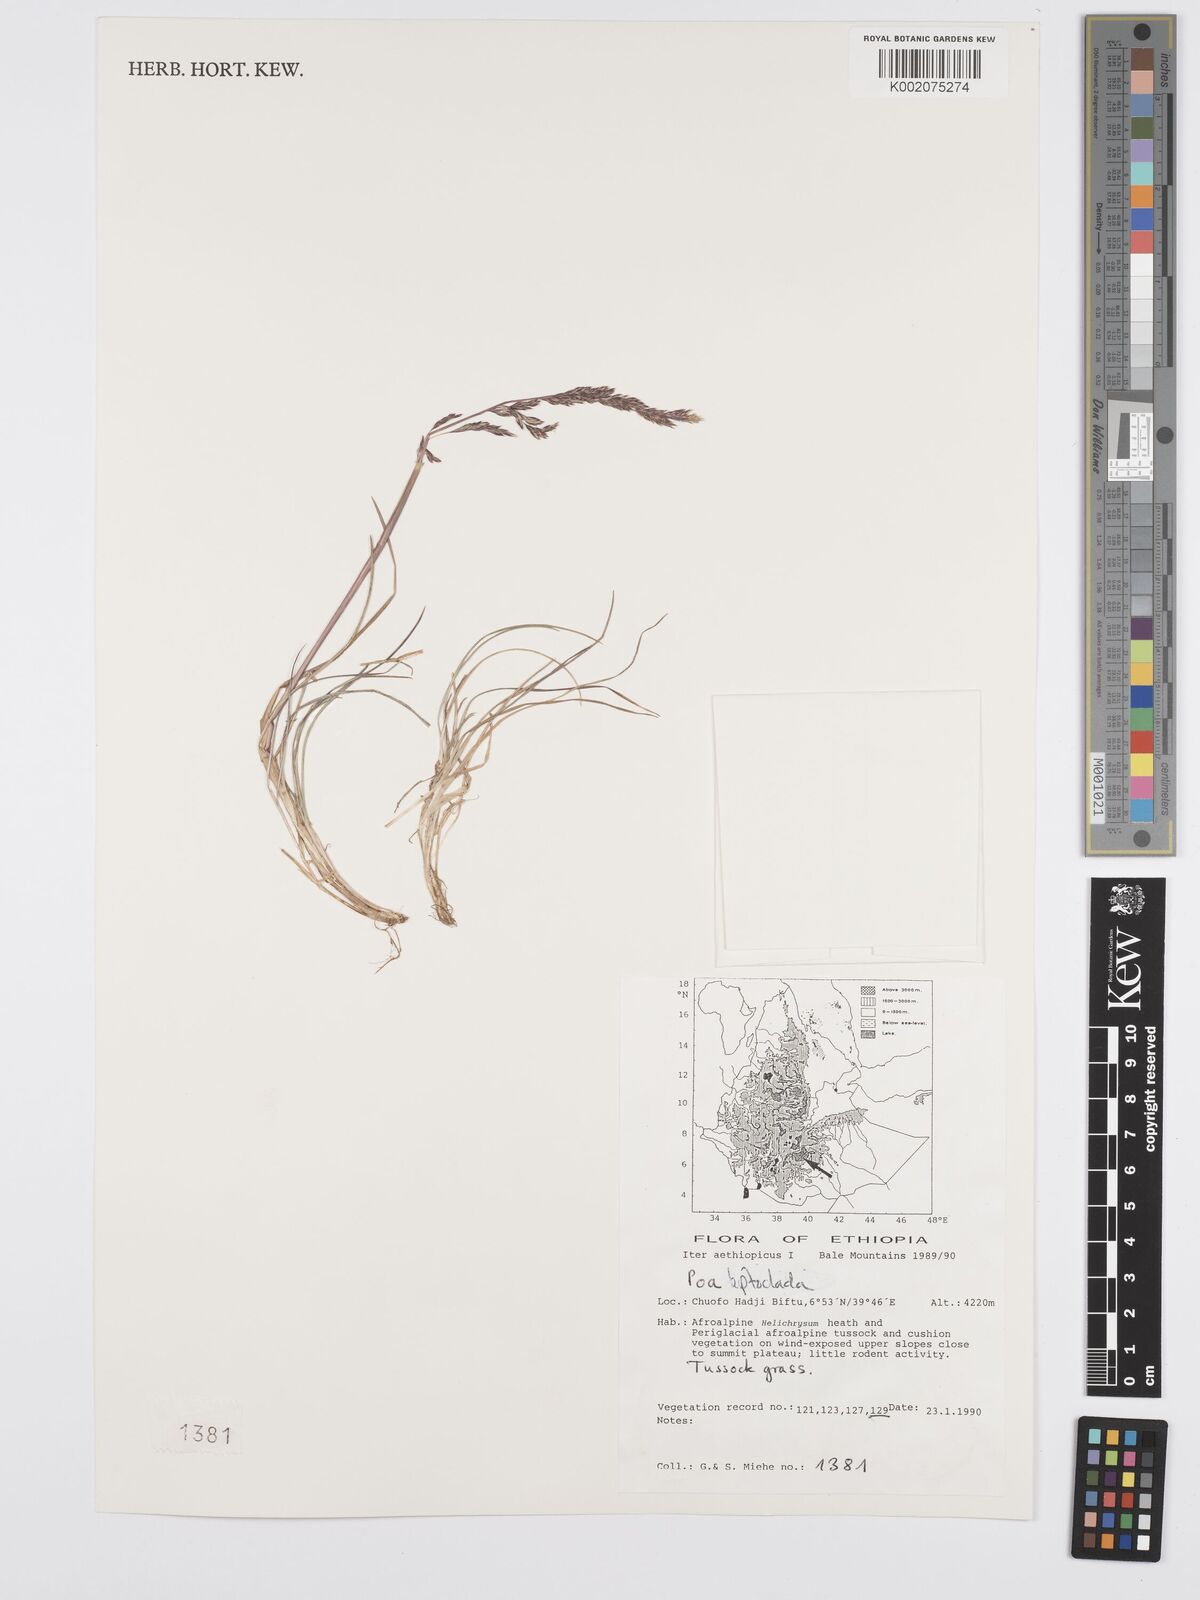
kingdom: Plantae
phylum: Tracheophyta
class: Liliopsida
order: Poales
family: Poaceae
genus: Poa
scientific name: Poa leptoclada
